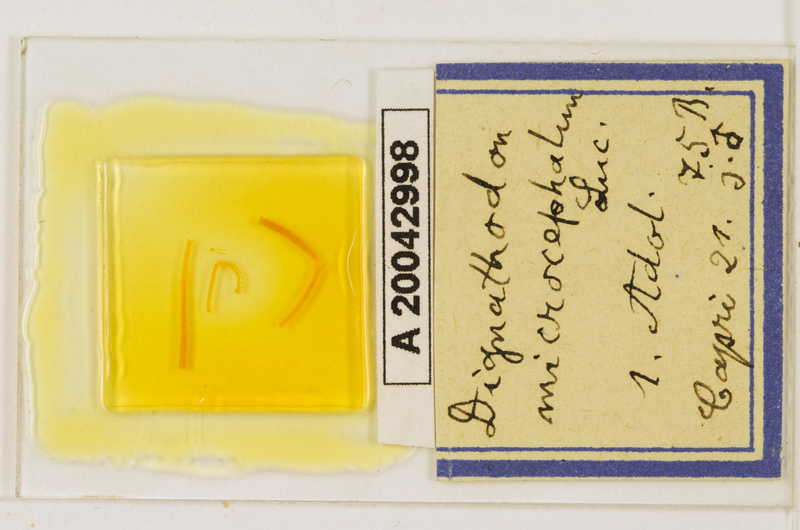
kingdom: Animalia
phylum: Arthropoda
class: Chilopoda
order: Geophilomorpha
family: Dignathodontidae
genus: Dignathodon
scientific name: Dignathodon microcephalus
